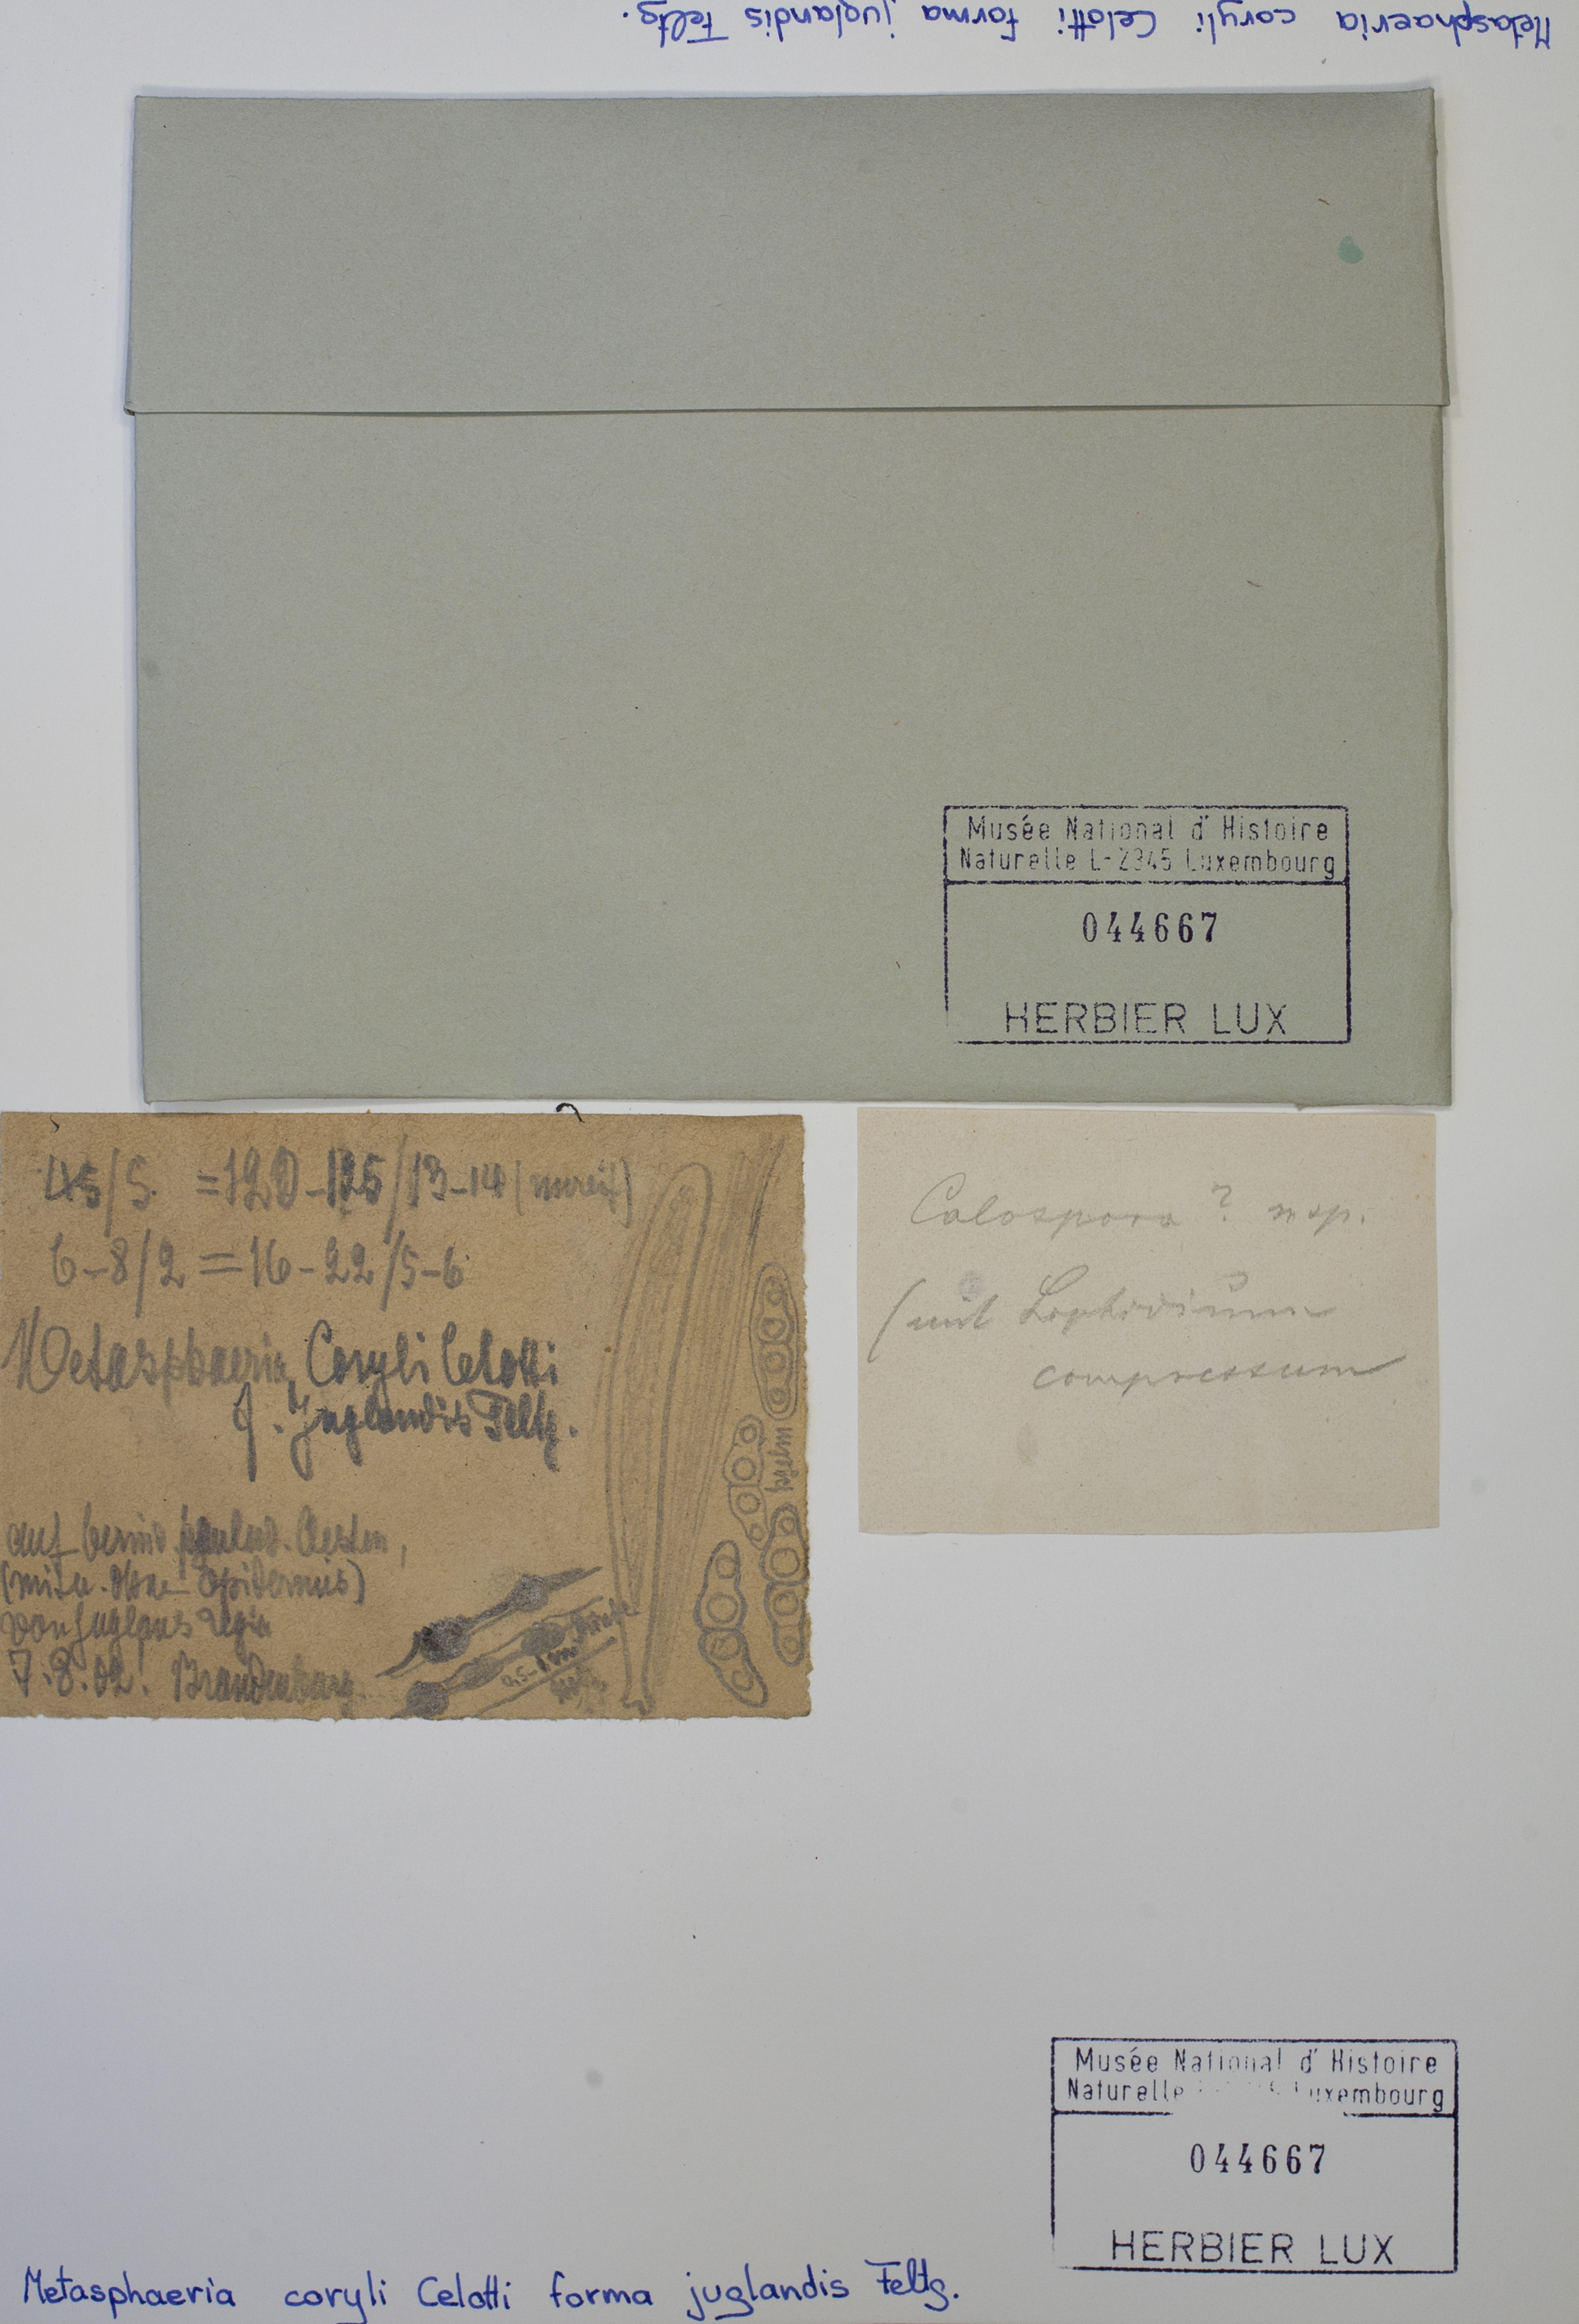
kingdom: Fungi
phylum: Ascomycota
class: Dothideomycetes
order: Dothideales
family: Saccotheciaceae
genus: Metasphaeria
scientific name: Metasphaeria coryli
